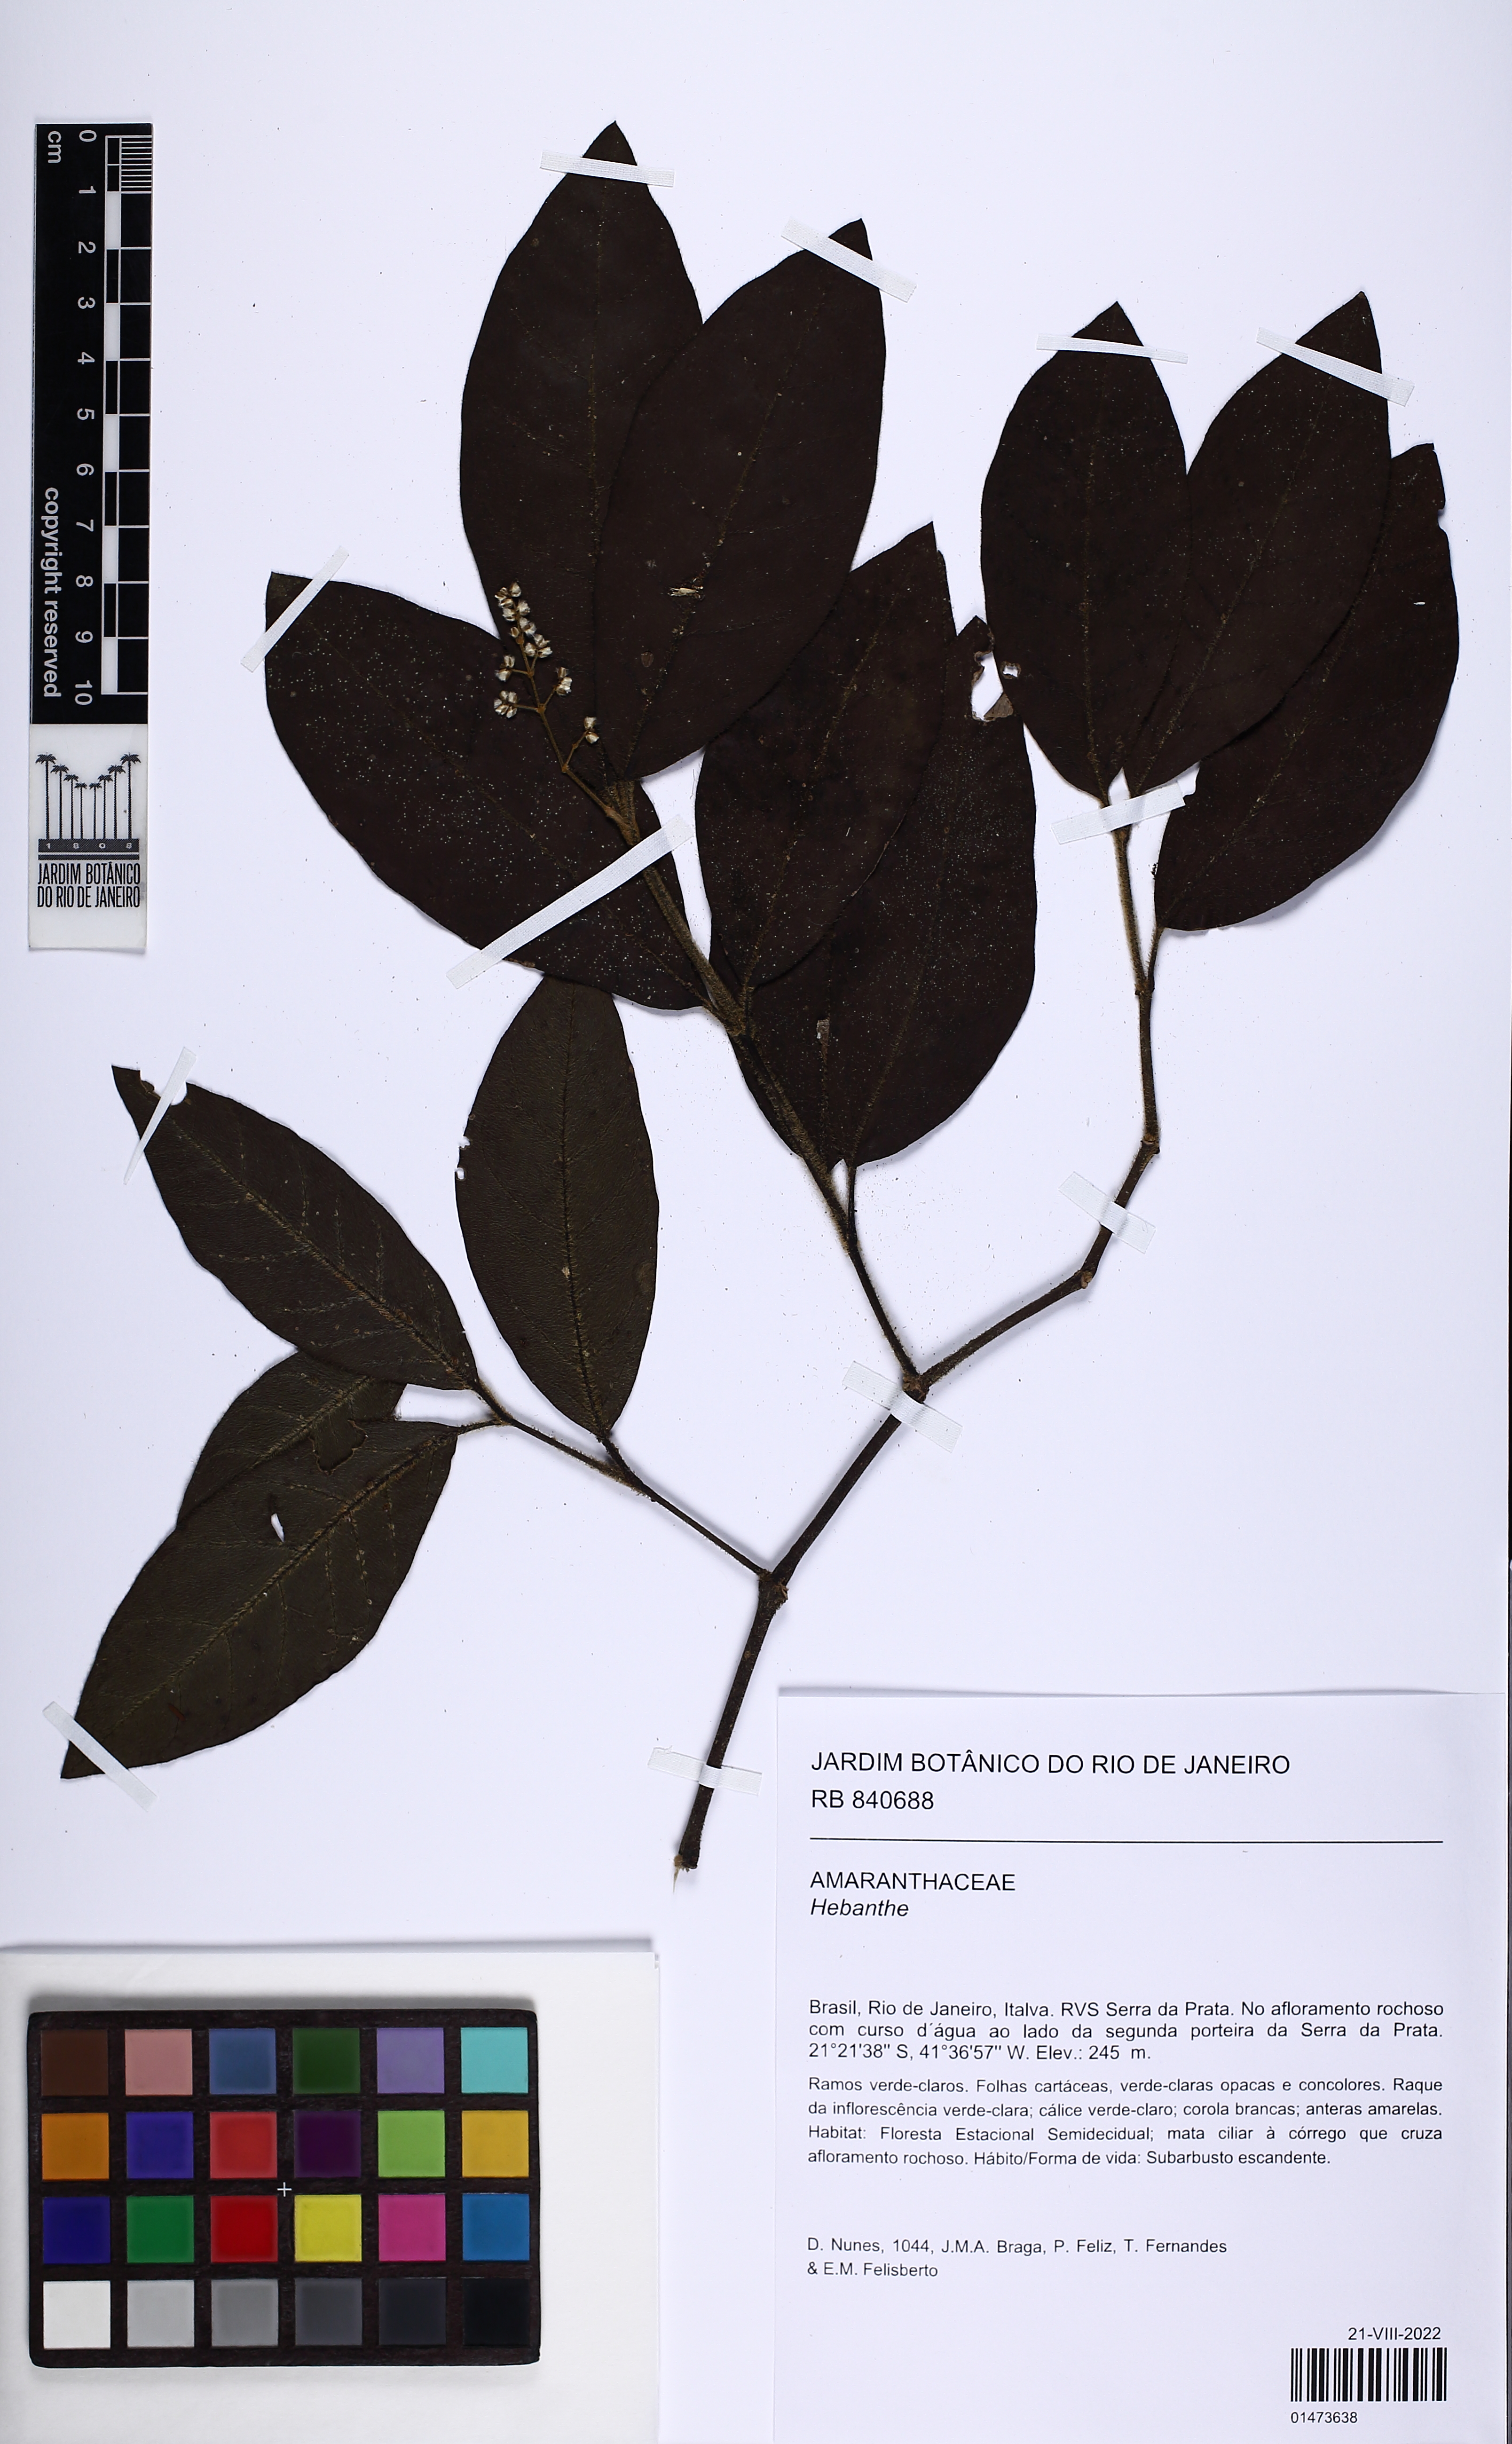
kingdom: Plantae
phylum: Tracheophyta
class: Magnoliopsida
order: Caryophyllales
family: Amaranthaceae
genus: Hebanthe
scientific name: Hebanthe
